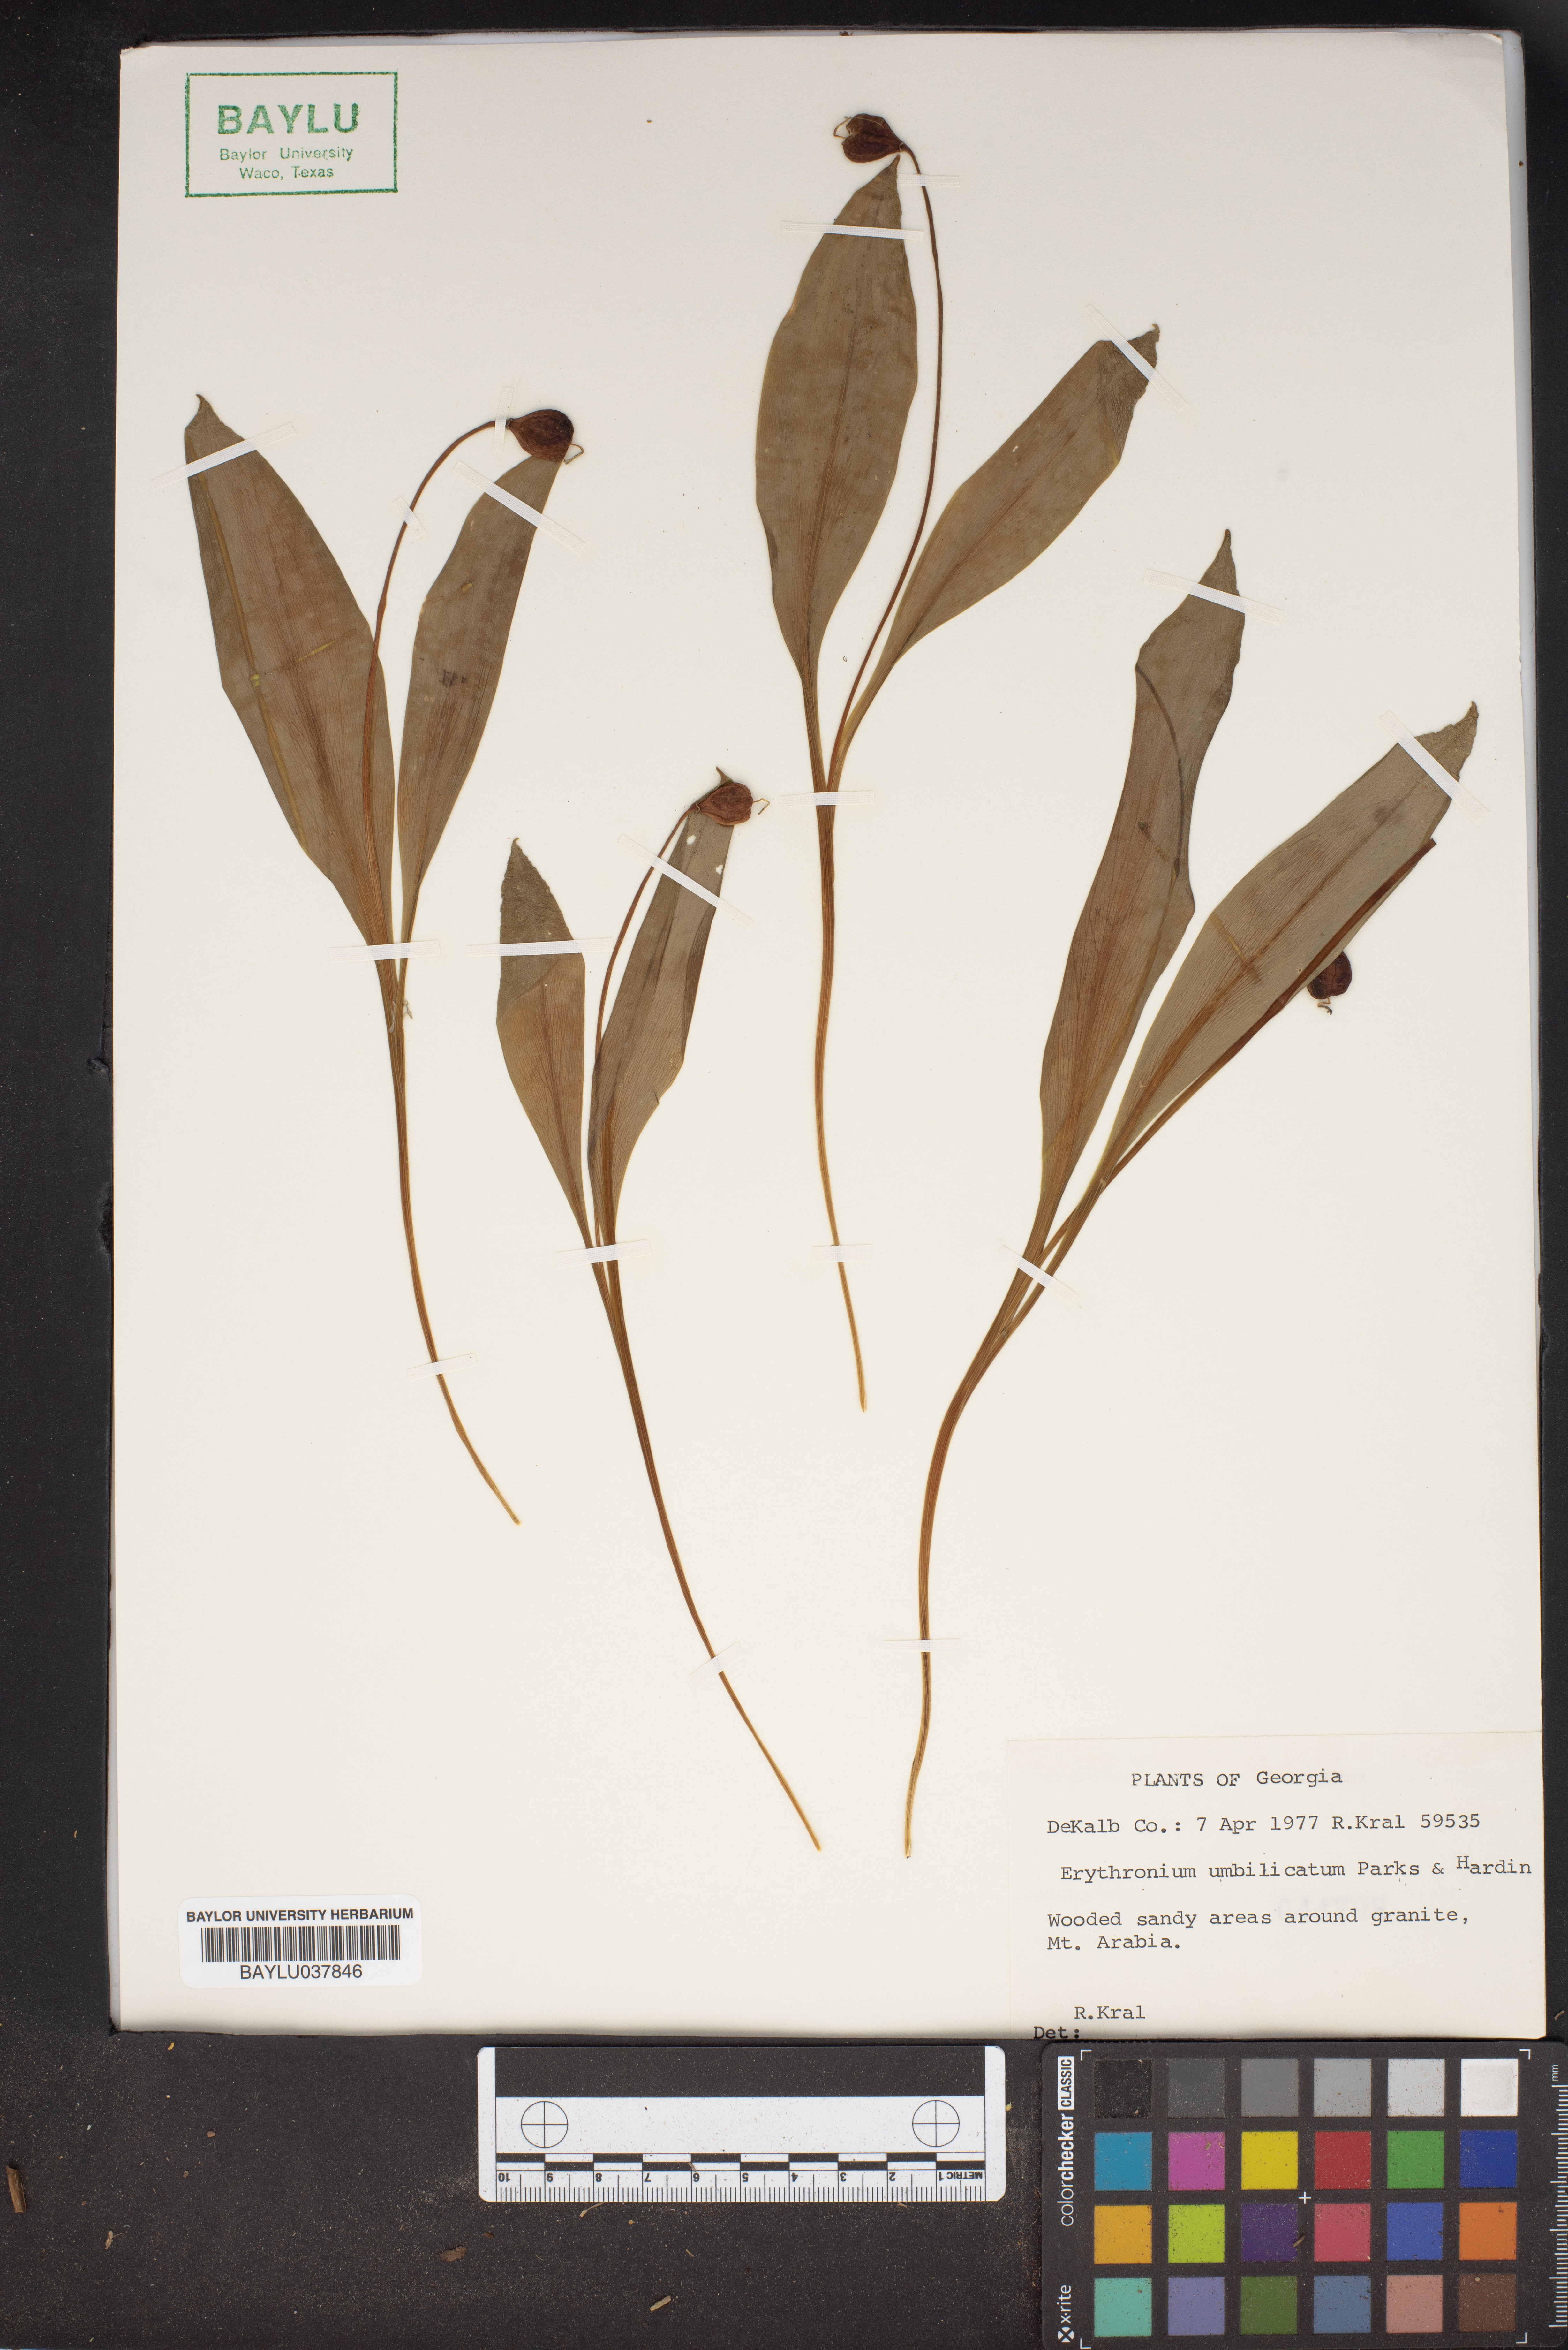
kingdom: Plantae
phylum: Tracheophyta
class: Liliopsida
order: Liliales
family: Liliaceae
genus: Erythronium
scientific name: Erythronium umbilicatum
